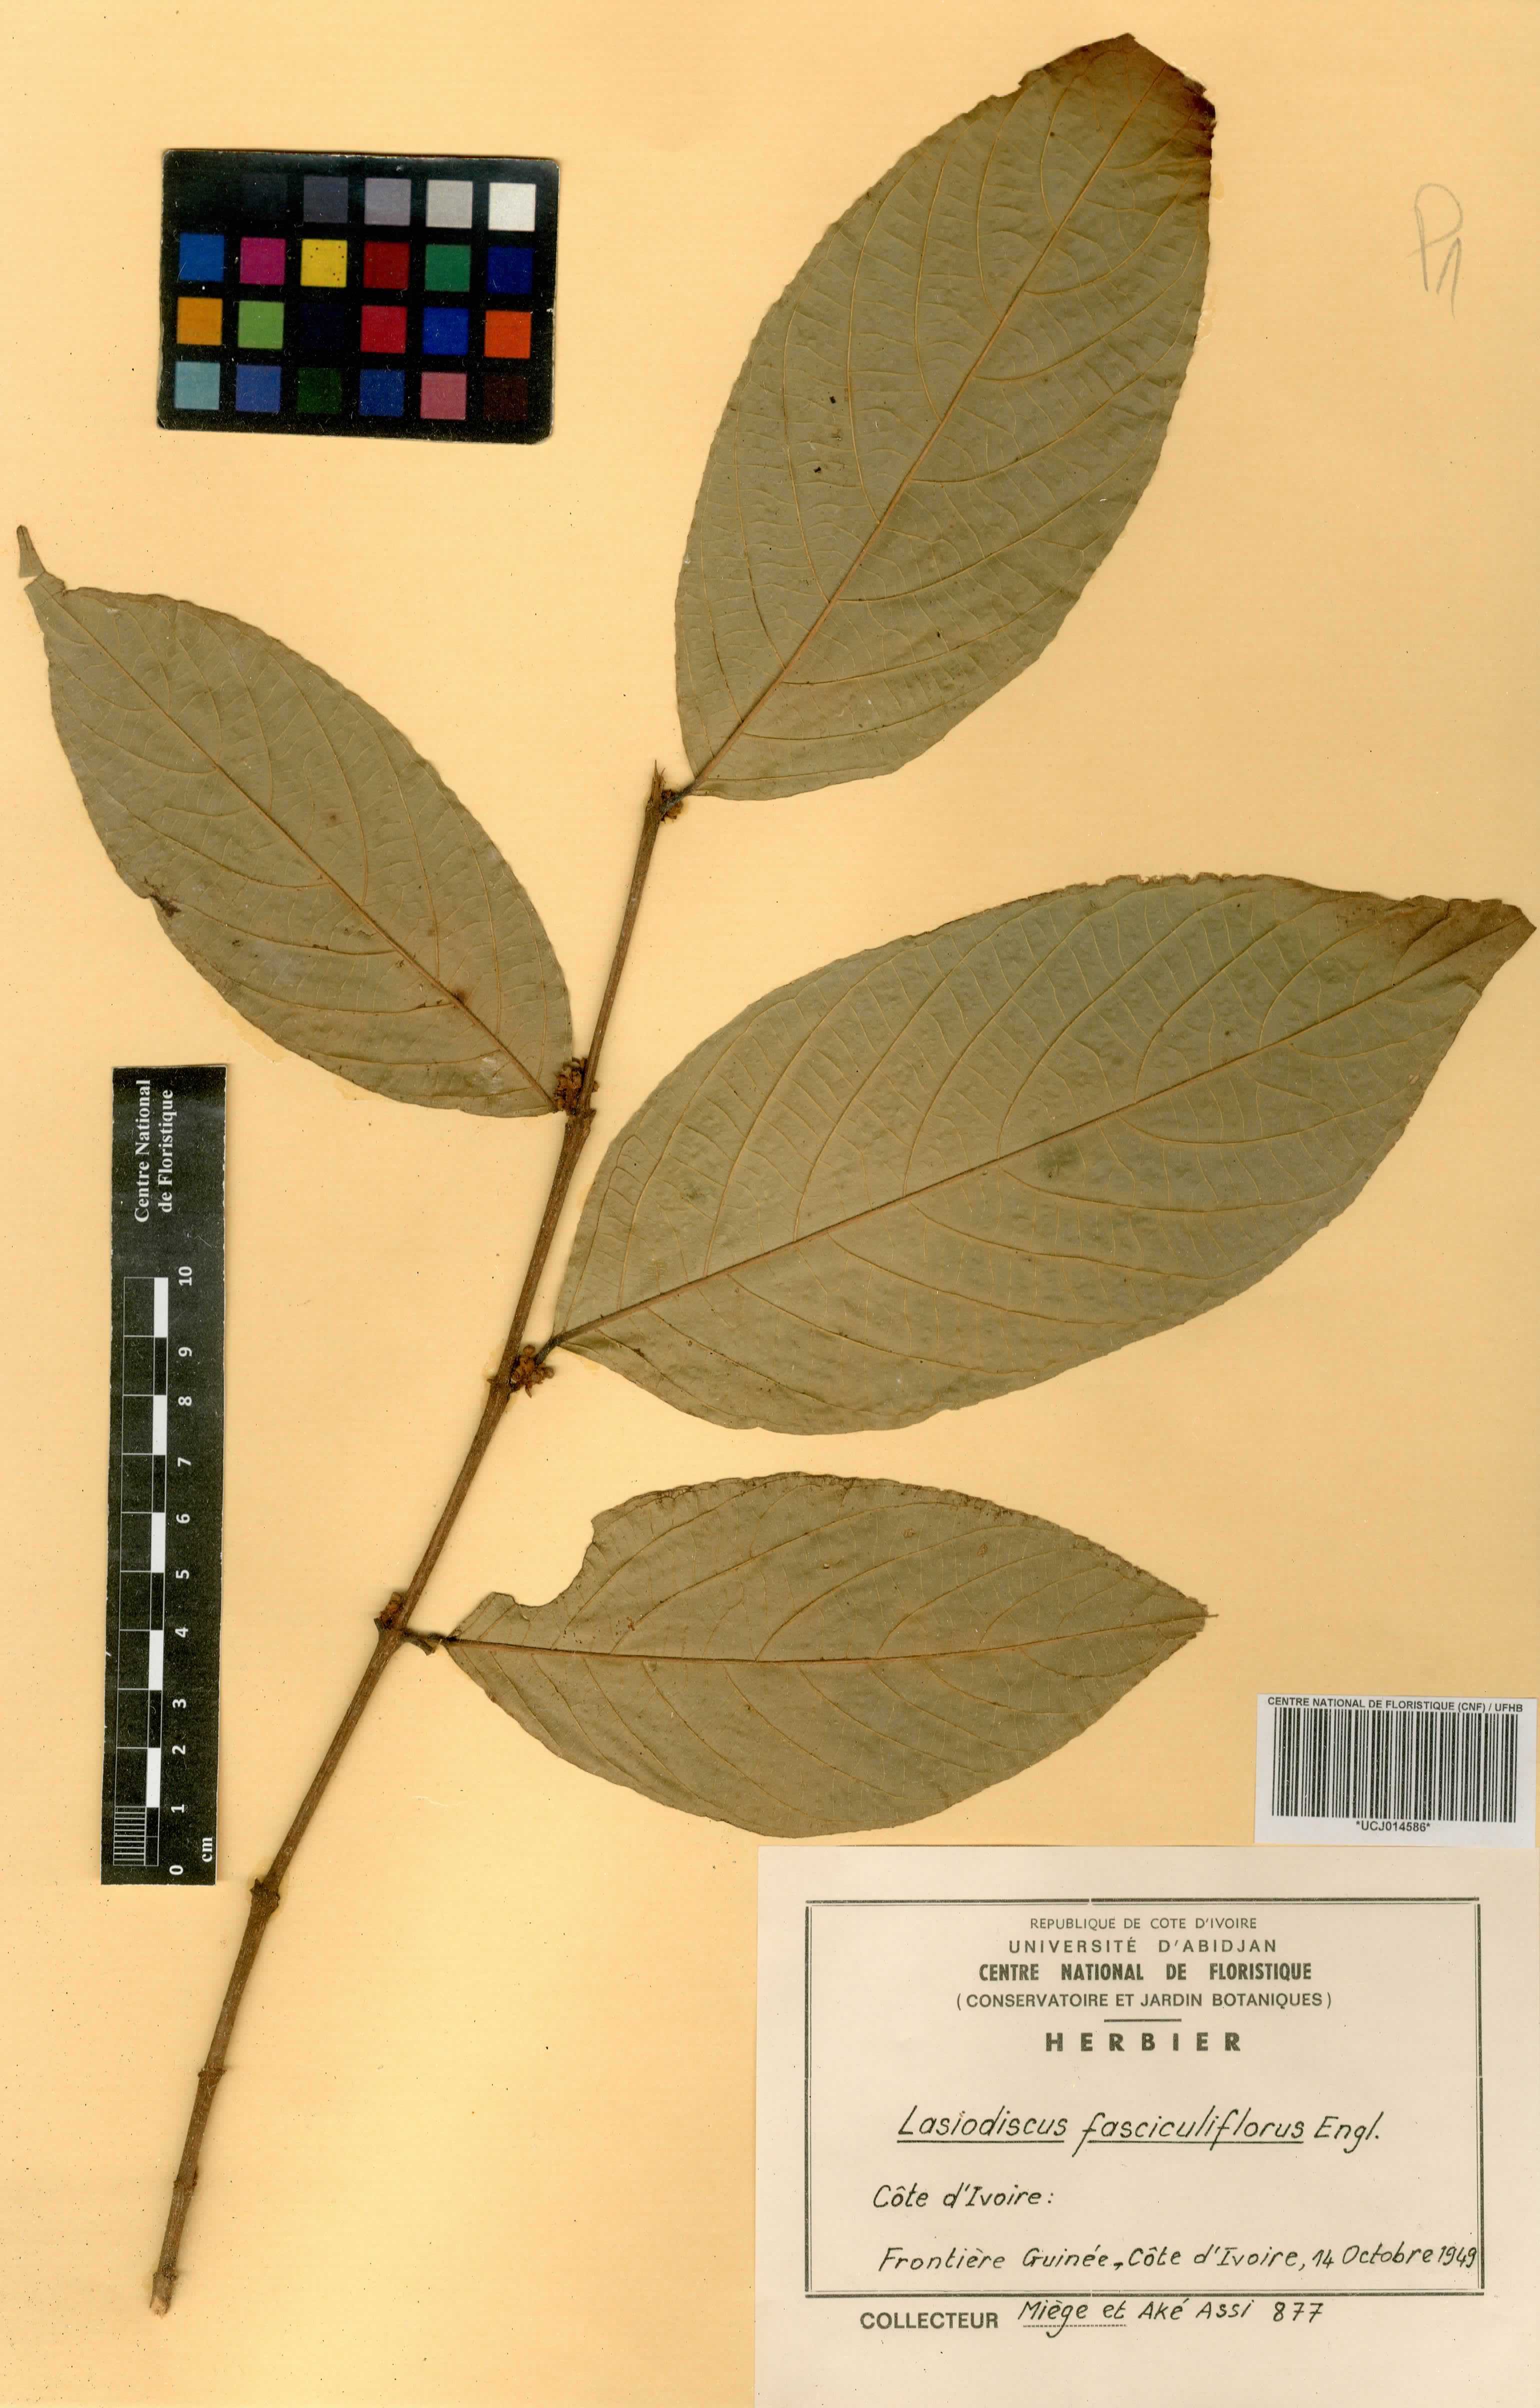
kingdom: Plantae
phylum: Tracheophyta
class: Magnoliopsida
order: Rosales
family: Rhamnaceae
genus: Lasiodiscus
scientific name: Lasiodiscus fasciculiflorus
